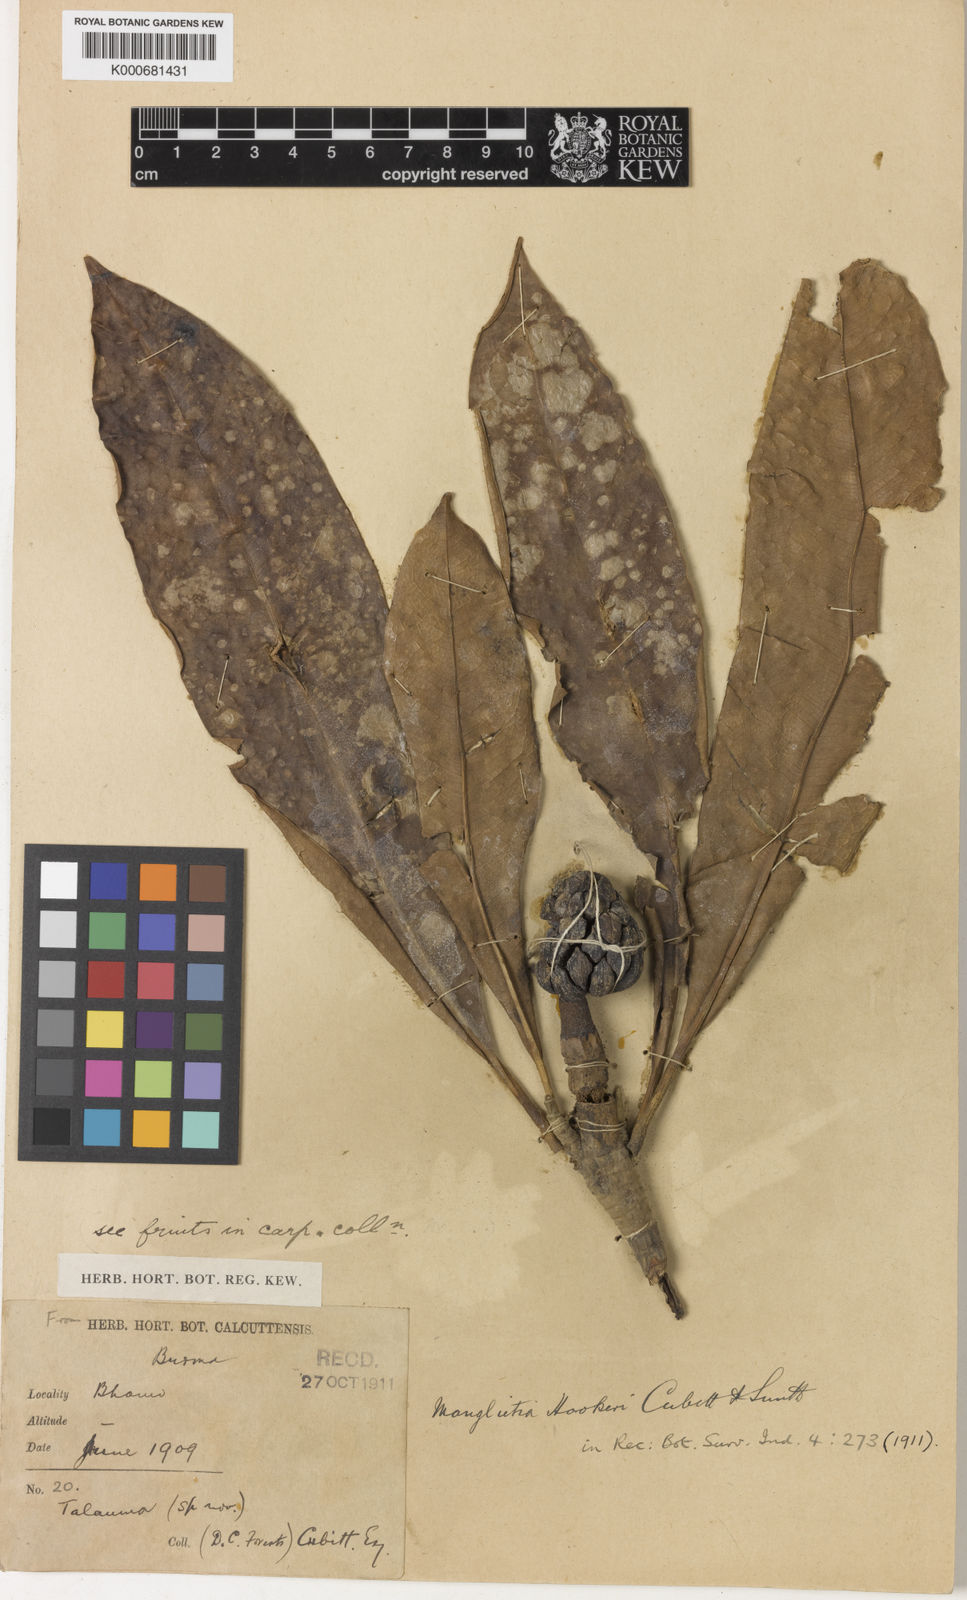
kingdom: Plantae
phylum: Tracheophyta
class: Magnoliopsida
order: Magnoliales
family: Magnoliaceae
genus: Magnolia
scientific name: Magnolia insignis
